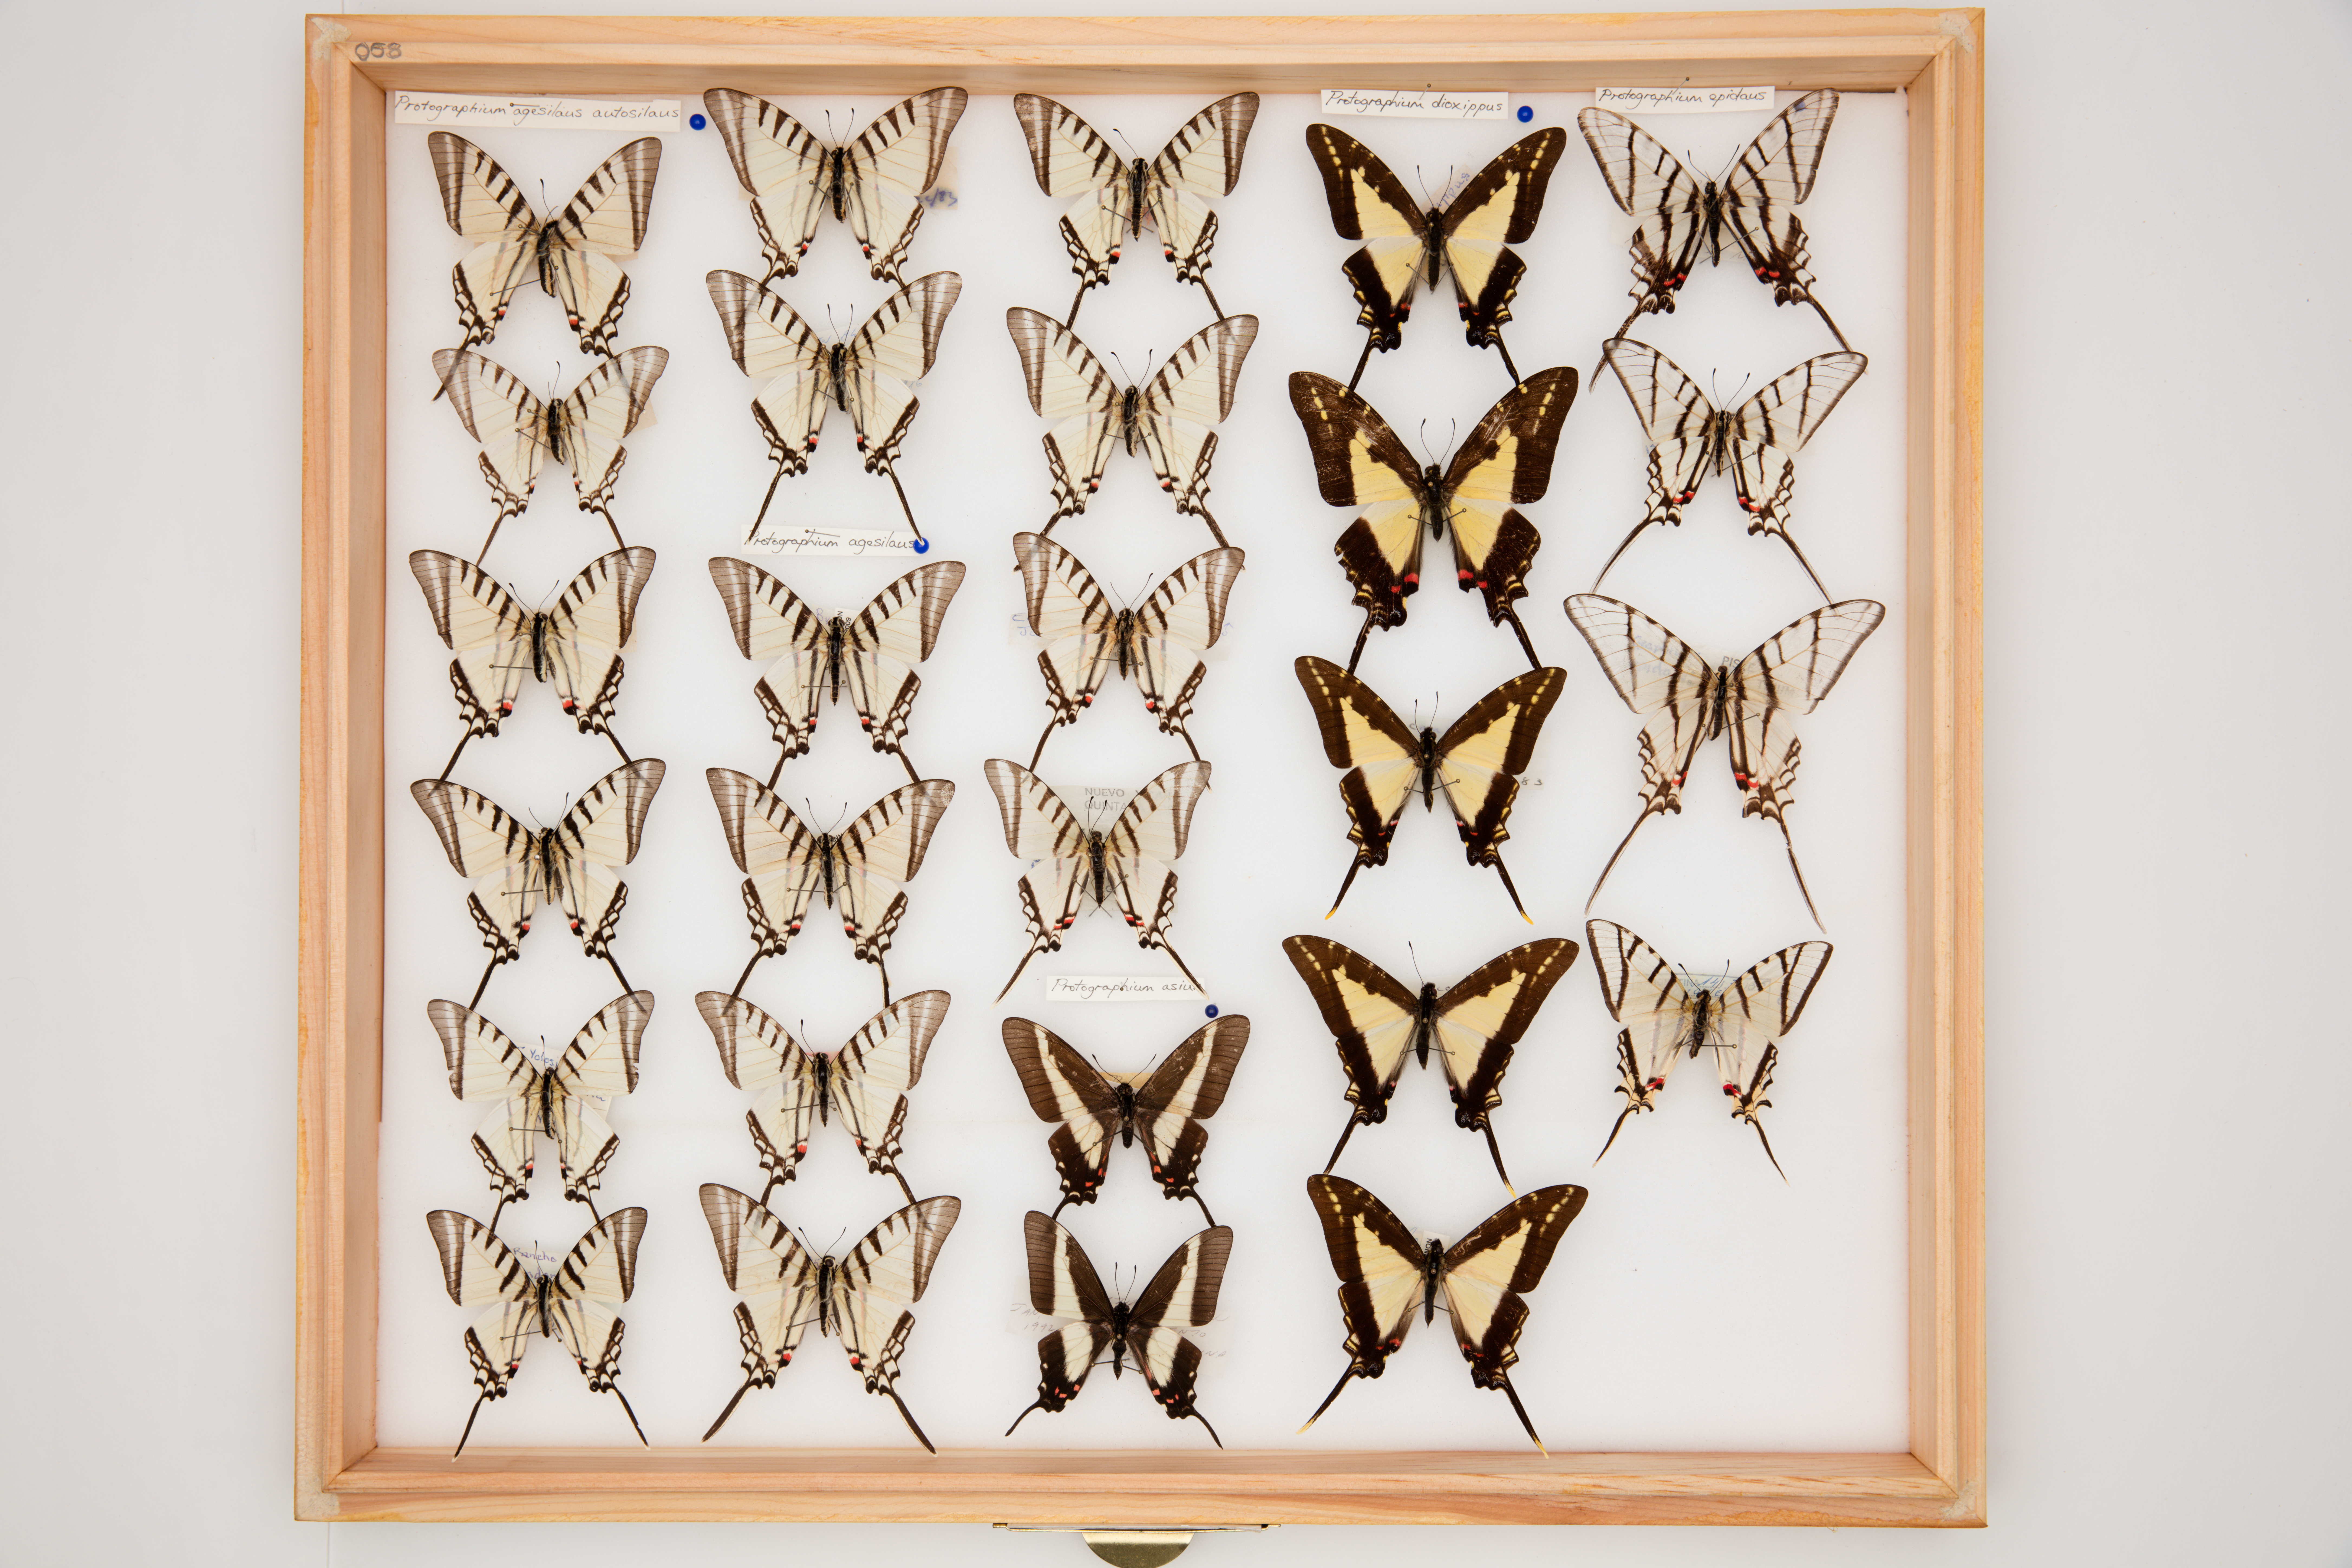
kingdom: Animalia
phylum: Arthropoda
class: Insecta
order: Lepidoptera
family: Papilionidae
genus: Protographium
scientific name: Protographium epidaus
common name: Mexican kite swallowtail
